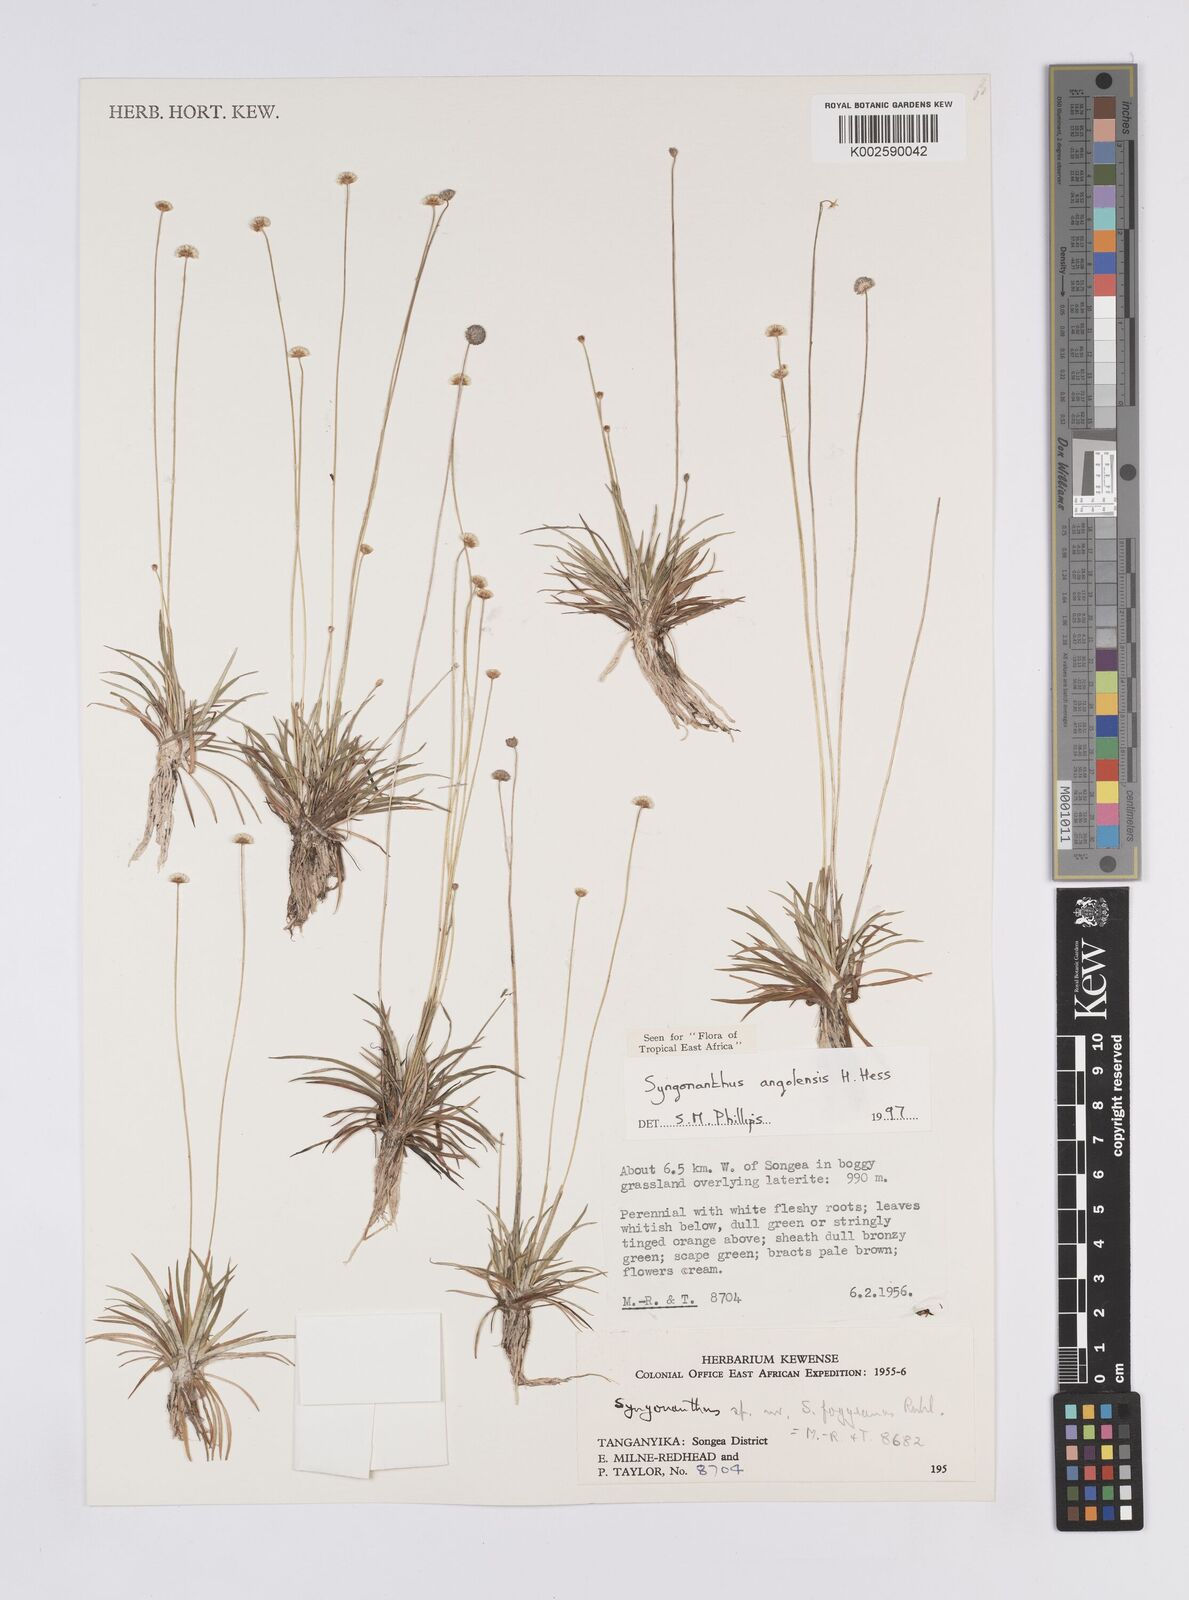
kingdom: Plantae
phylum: Tracheophyta
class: Liliopsida
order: Poales
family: Eriocaulaceae
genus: Syngonanthus
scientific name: Syngonanthus angolensis
